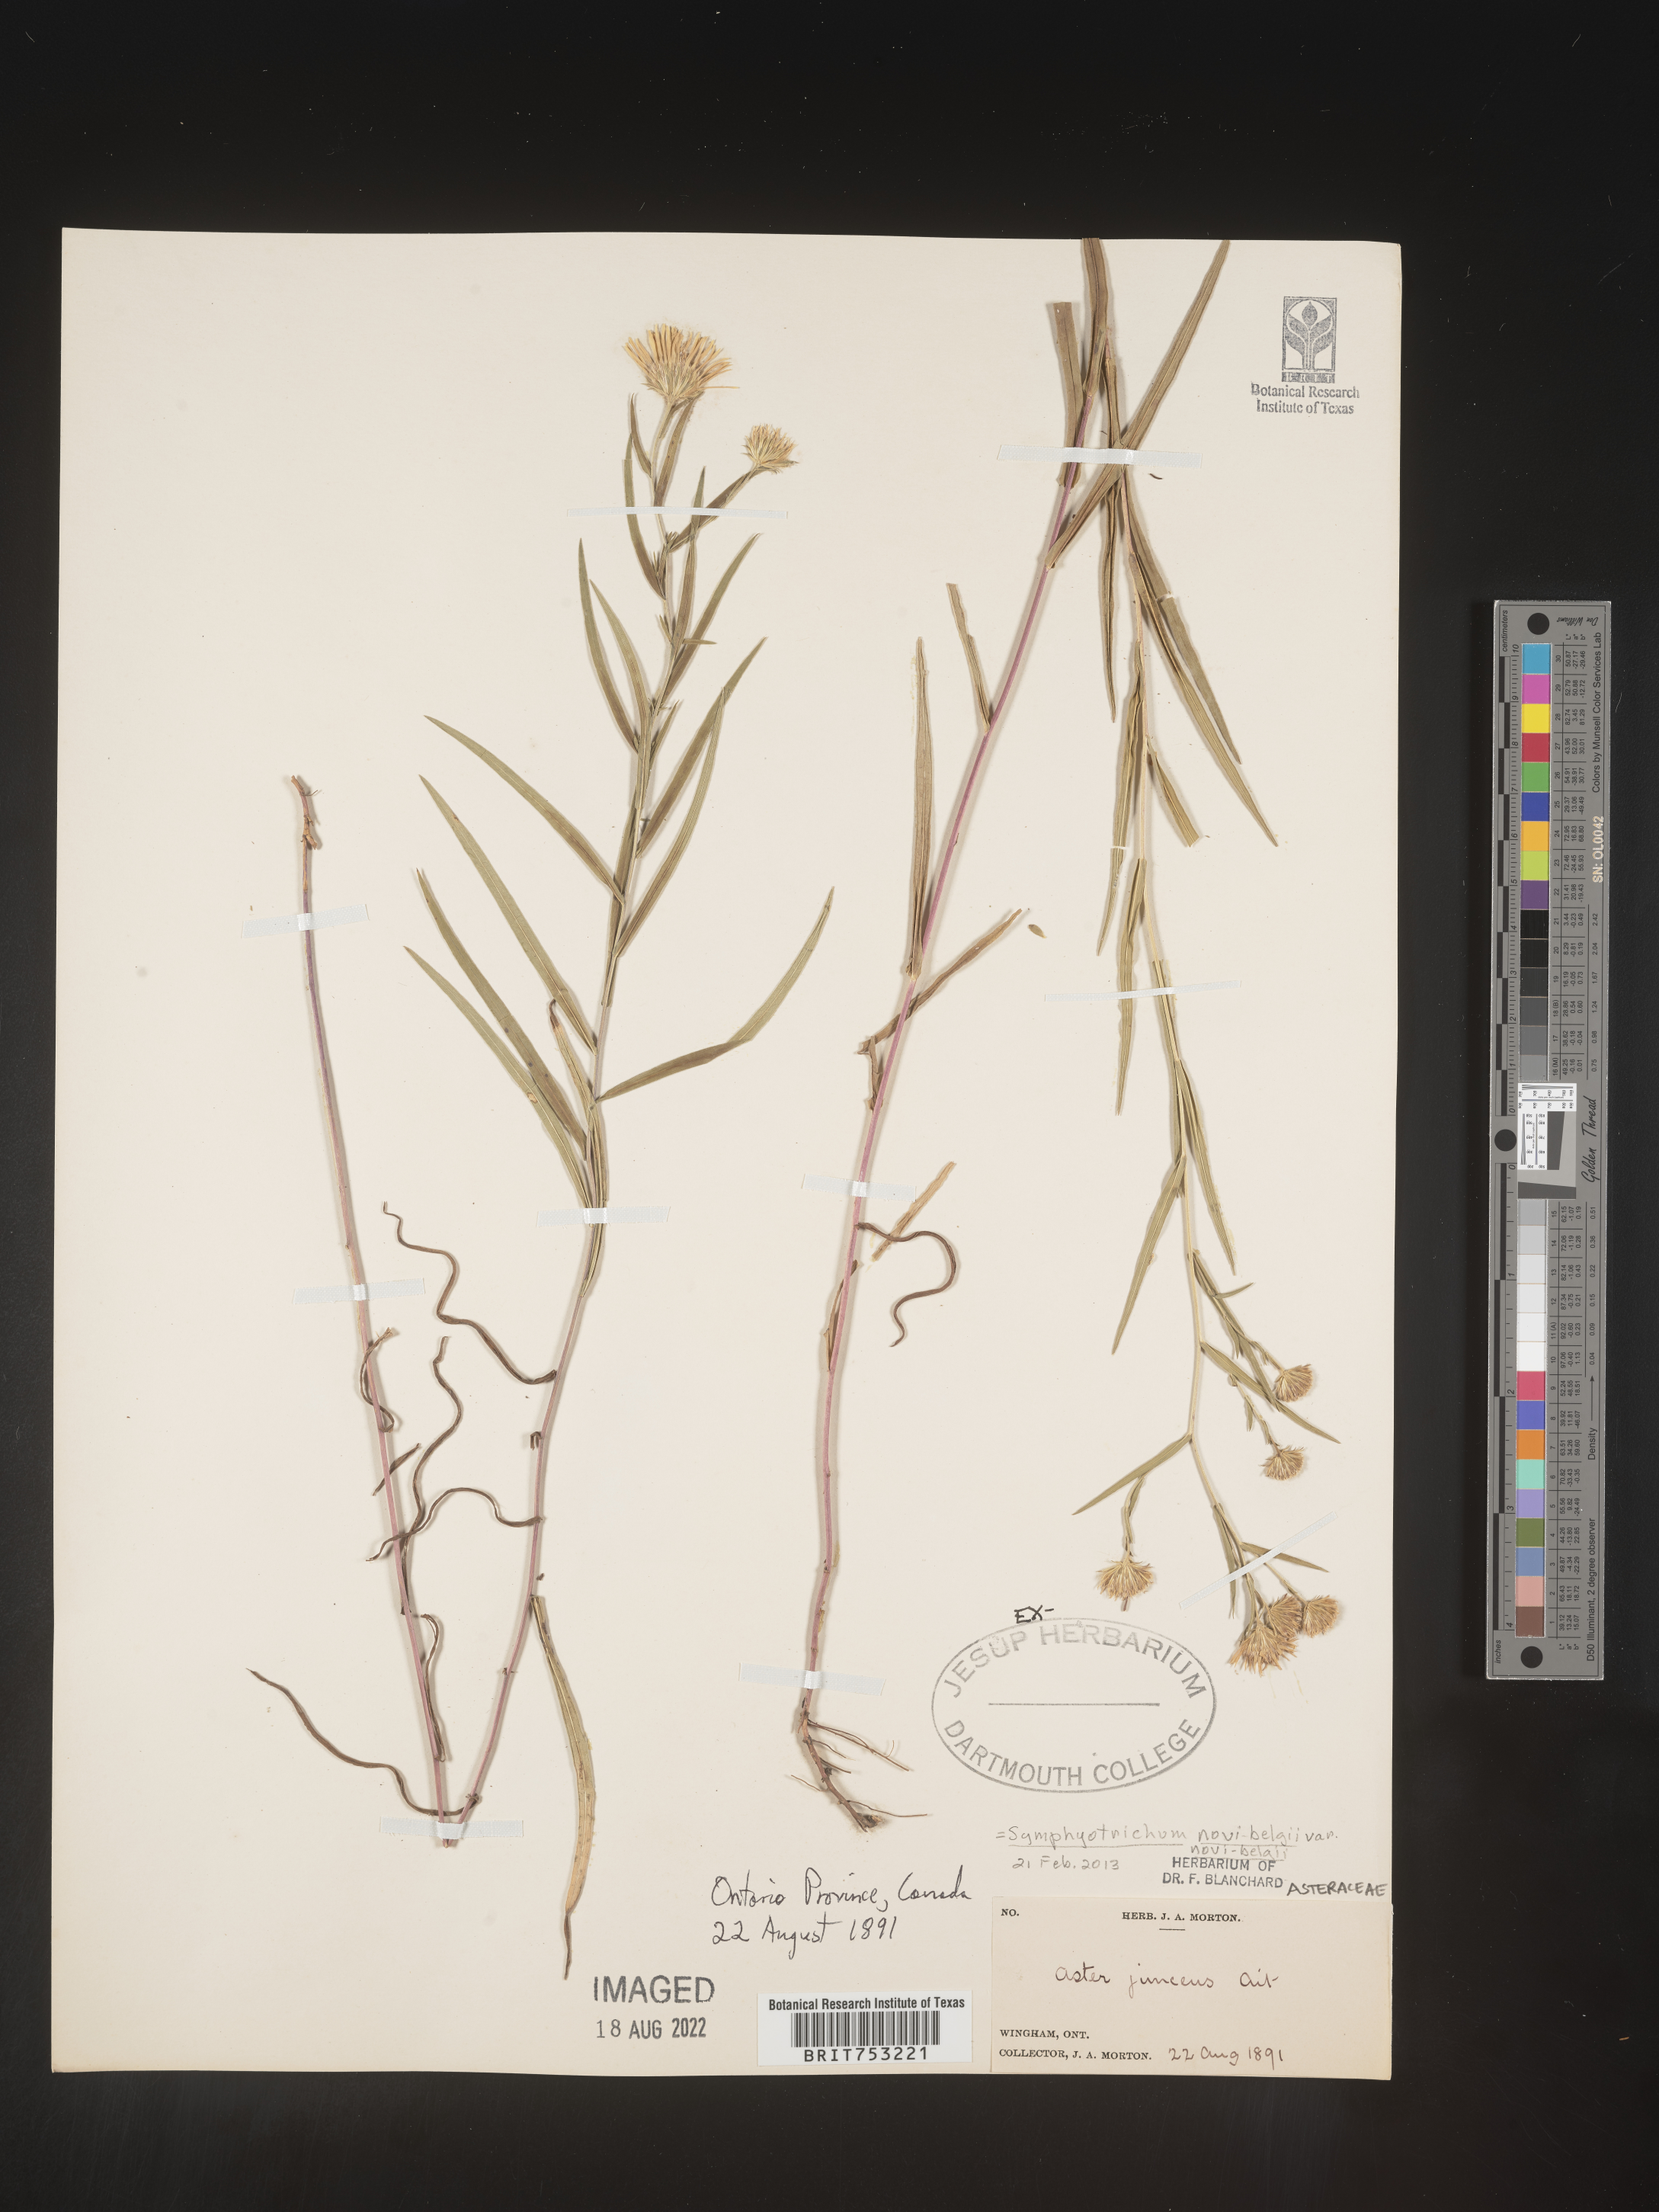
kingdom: Plantae
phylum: Tracheophyta
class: Magnoliopsida
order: Asterales
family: Asteraceae
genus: Symphyotrichum
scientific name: Symphyotrichum novi-belgii
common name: Michaelmas daisy
